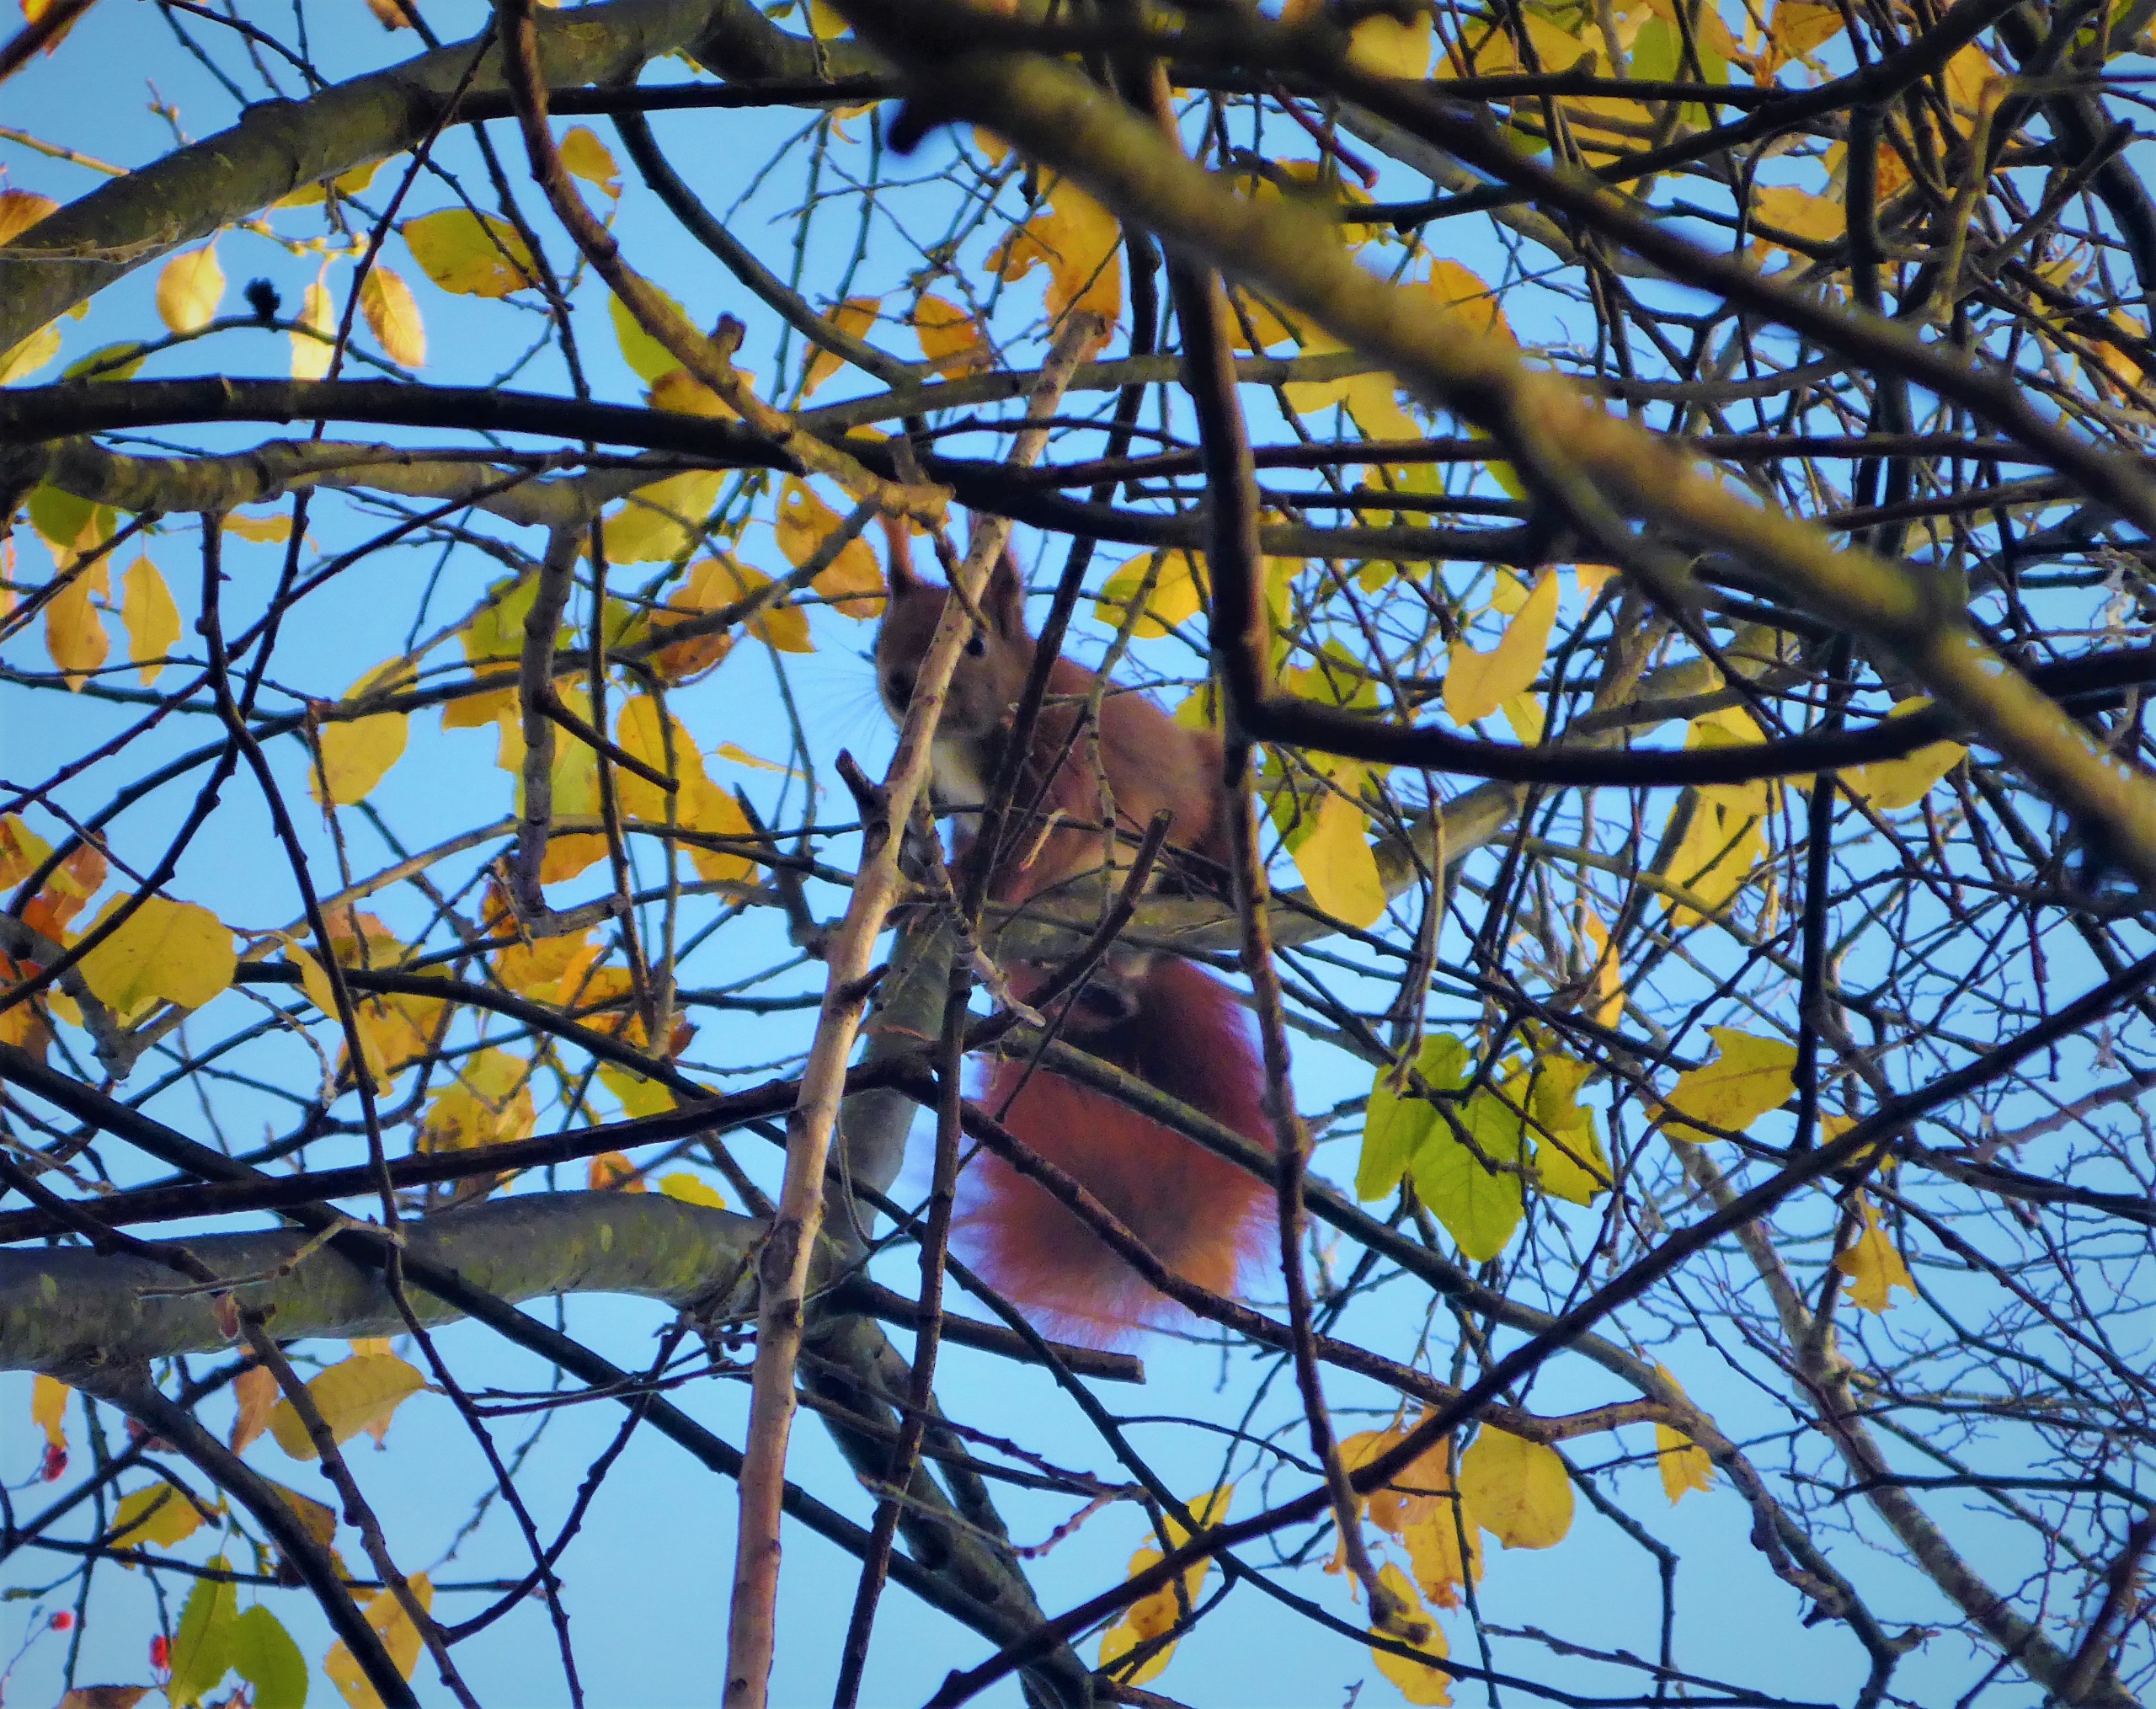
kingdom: Animalia
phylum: Chordata
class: Mammalia
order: Rodentia
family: Sciuridae
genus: Sciurus
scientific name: Sciurus vulgaris
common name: Egern
